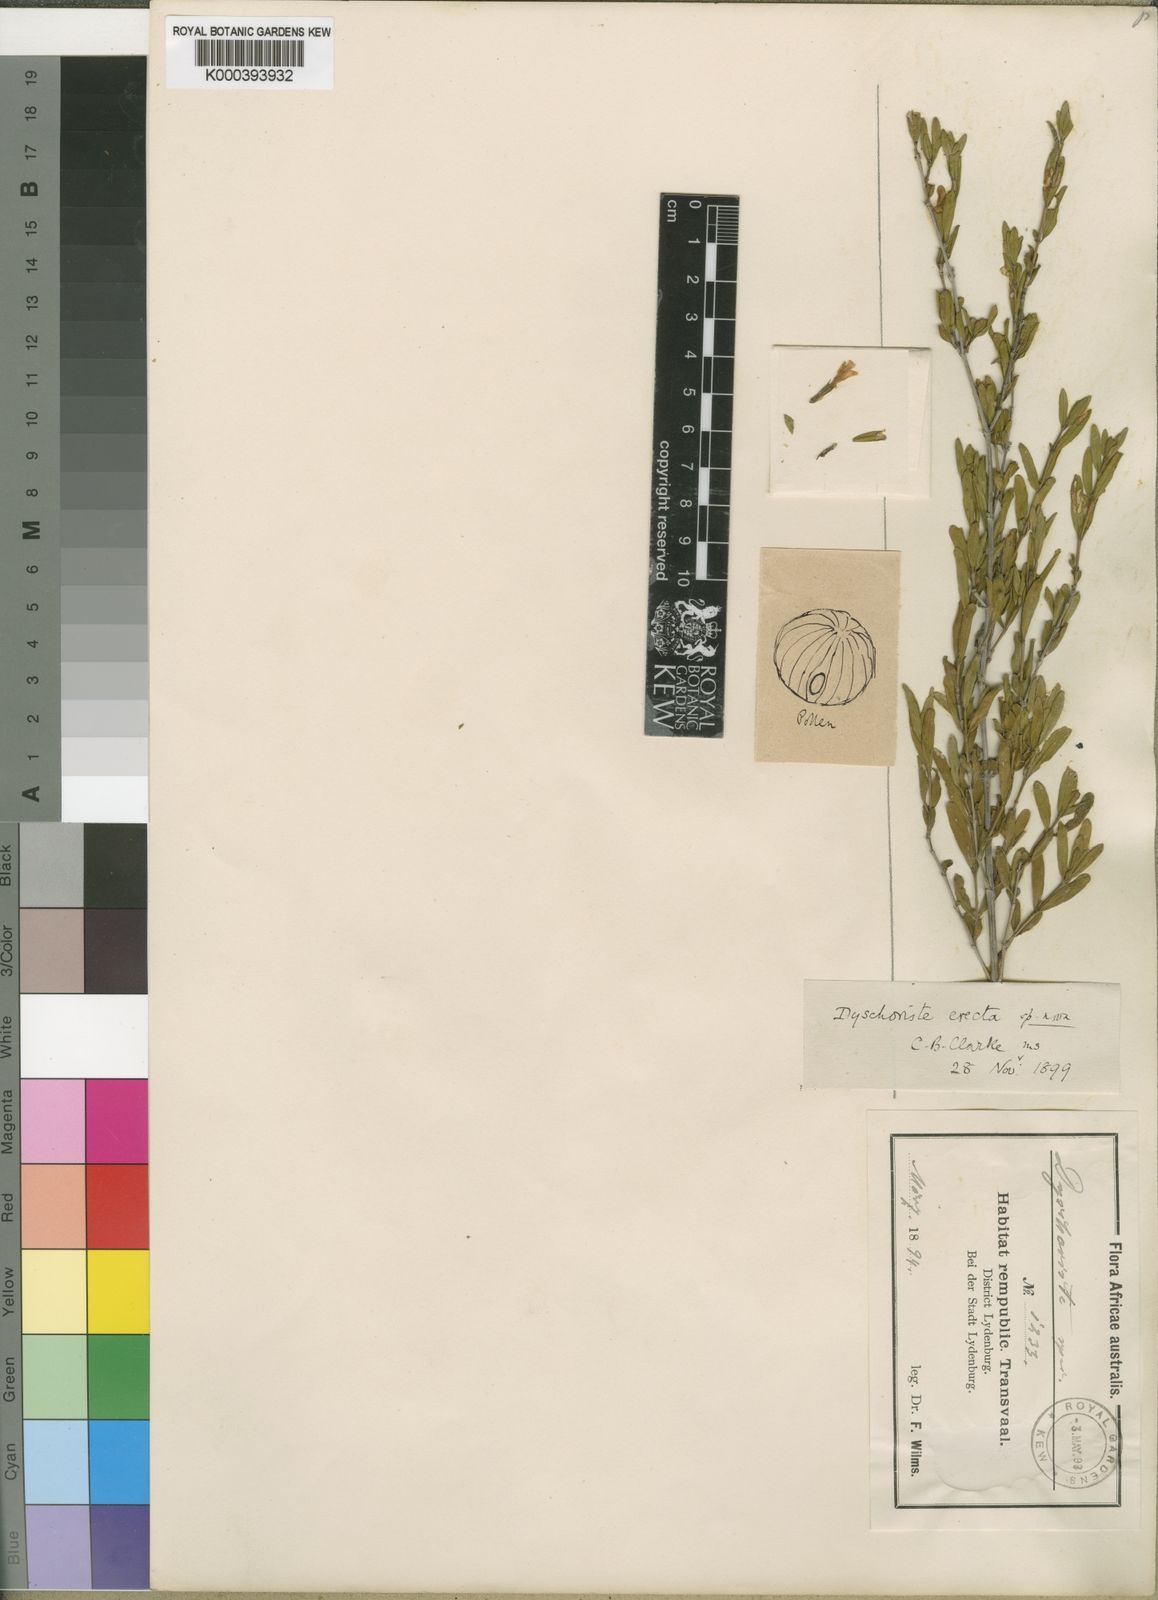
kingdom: Plantae
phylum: Tracheophyta
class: Magnoliopsida
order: Lamiales
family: Acanthaceae
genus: Dyschoriste
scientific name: Dyschoriste erecta
